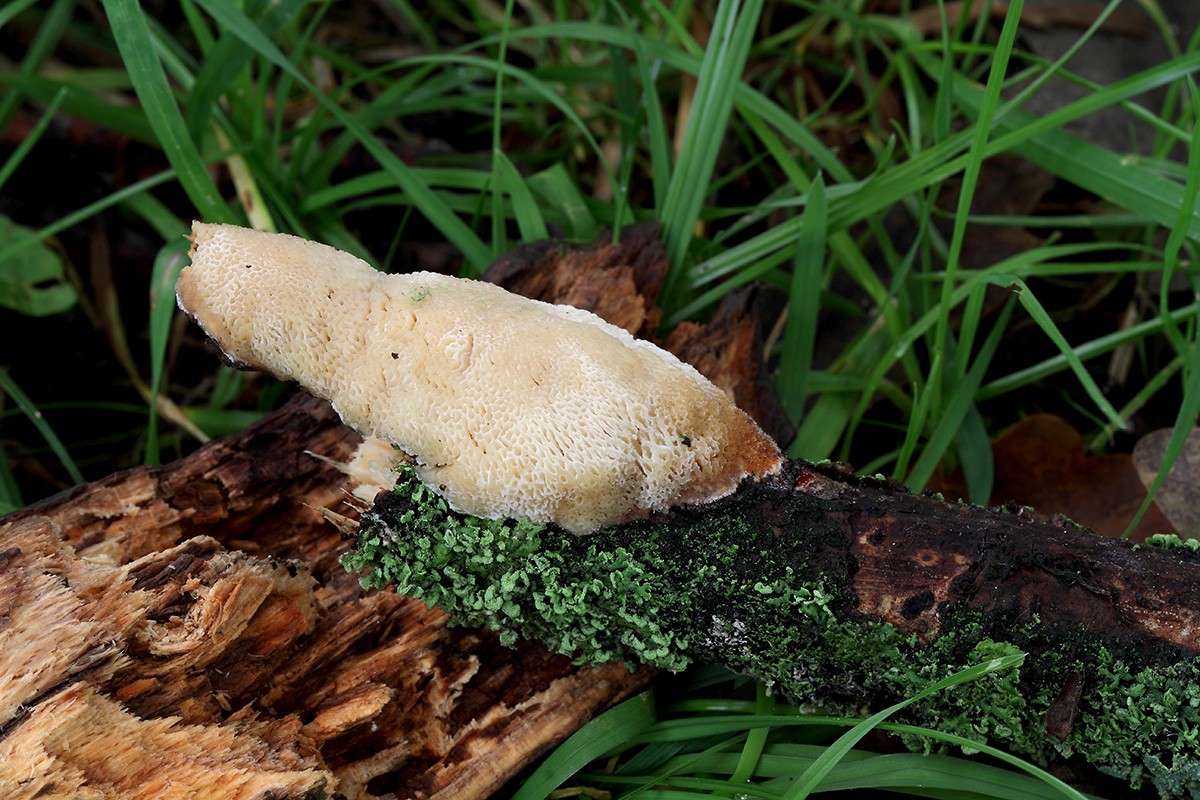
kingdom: Fungi
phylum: Basidiomycota
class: Agaricomycetes
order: Polyporales
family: Polyporaceae
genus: Szczepkamyces
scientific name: Szczepkamyces campestris
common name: hasselporesvamp
